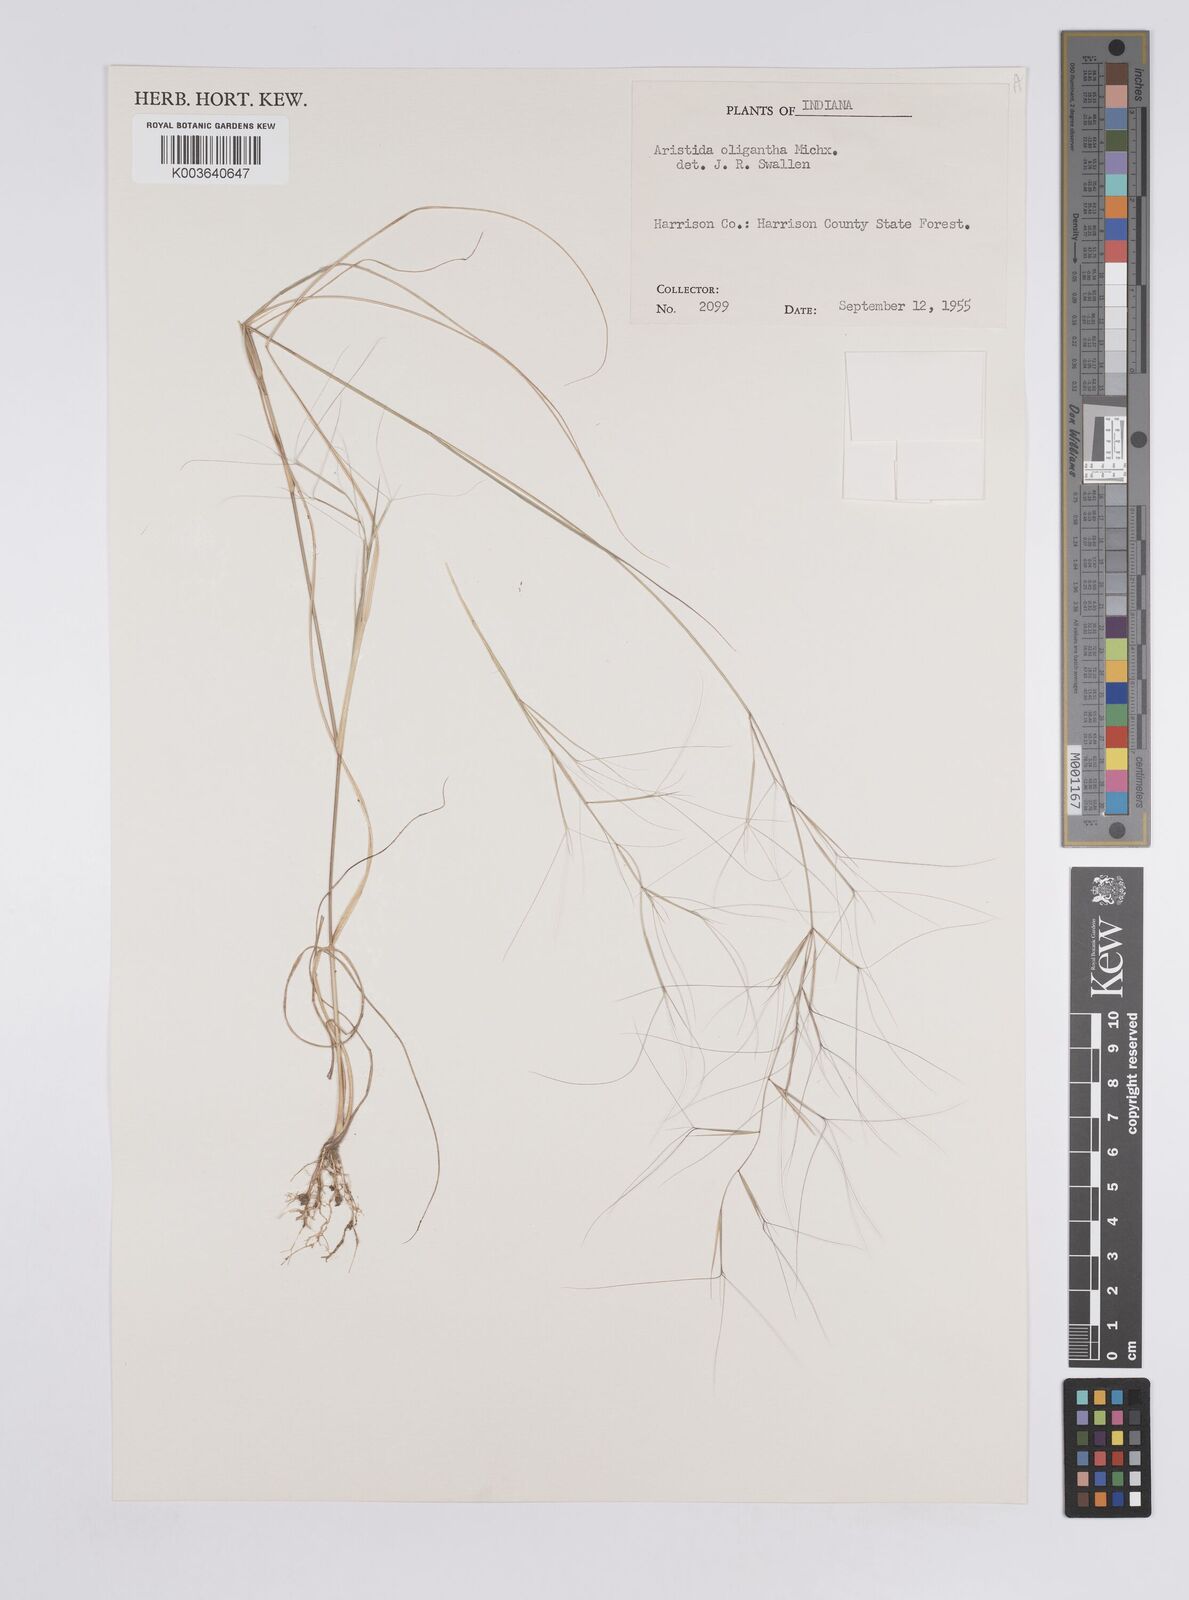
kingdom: Plantae
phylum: Tracheophyta
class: Liliopsida
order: Poales
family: Poaceae
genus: Aristida
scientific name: Aristida oligantha
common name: Few-flowered aristida
